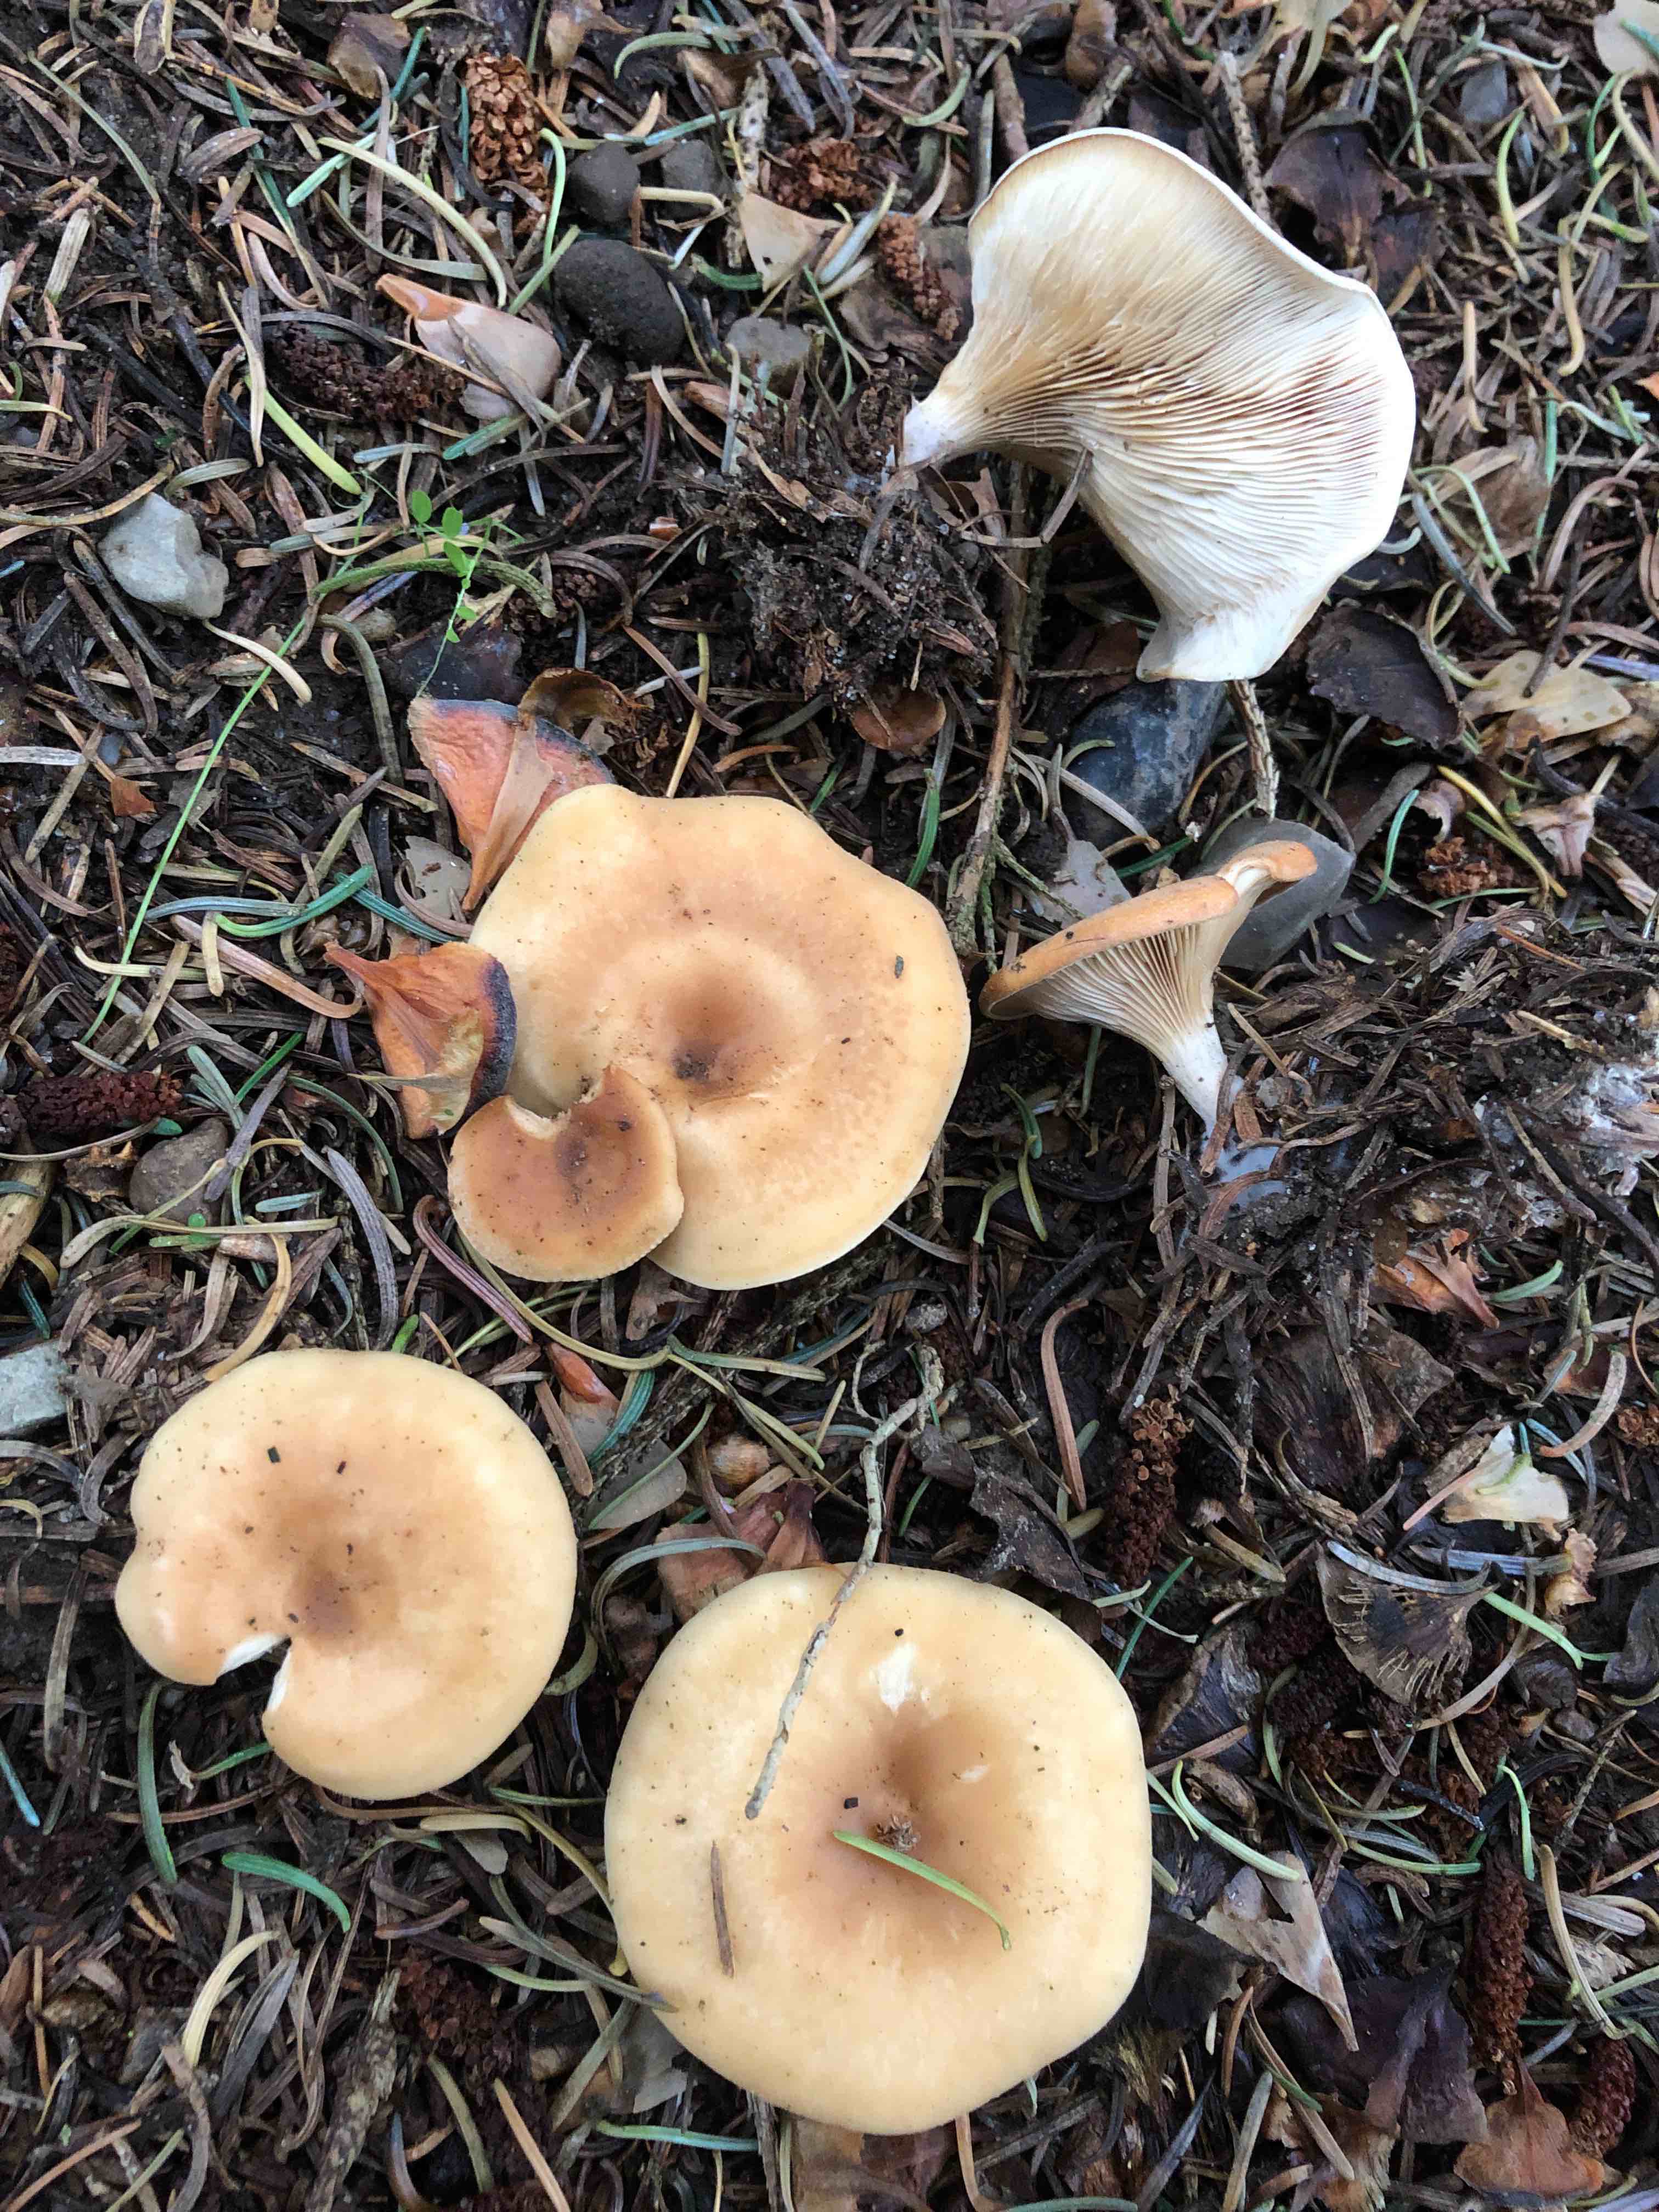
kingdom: Fungi
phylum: Basidiomycota
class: Agaricomycetes
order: Agaricales
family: Tricholomataceae
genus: Paralepista
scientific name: Paralepista flaccida
